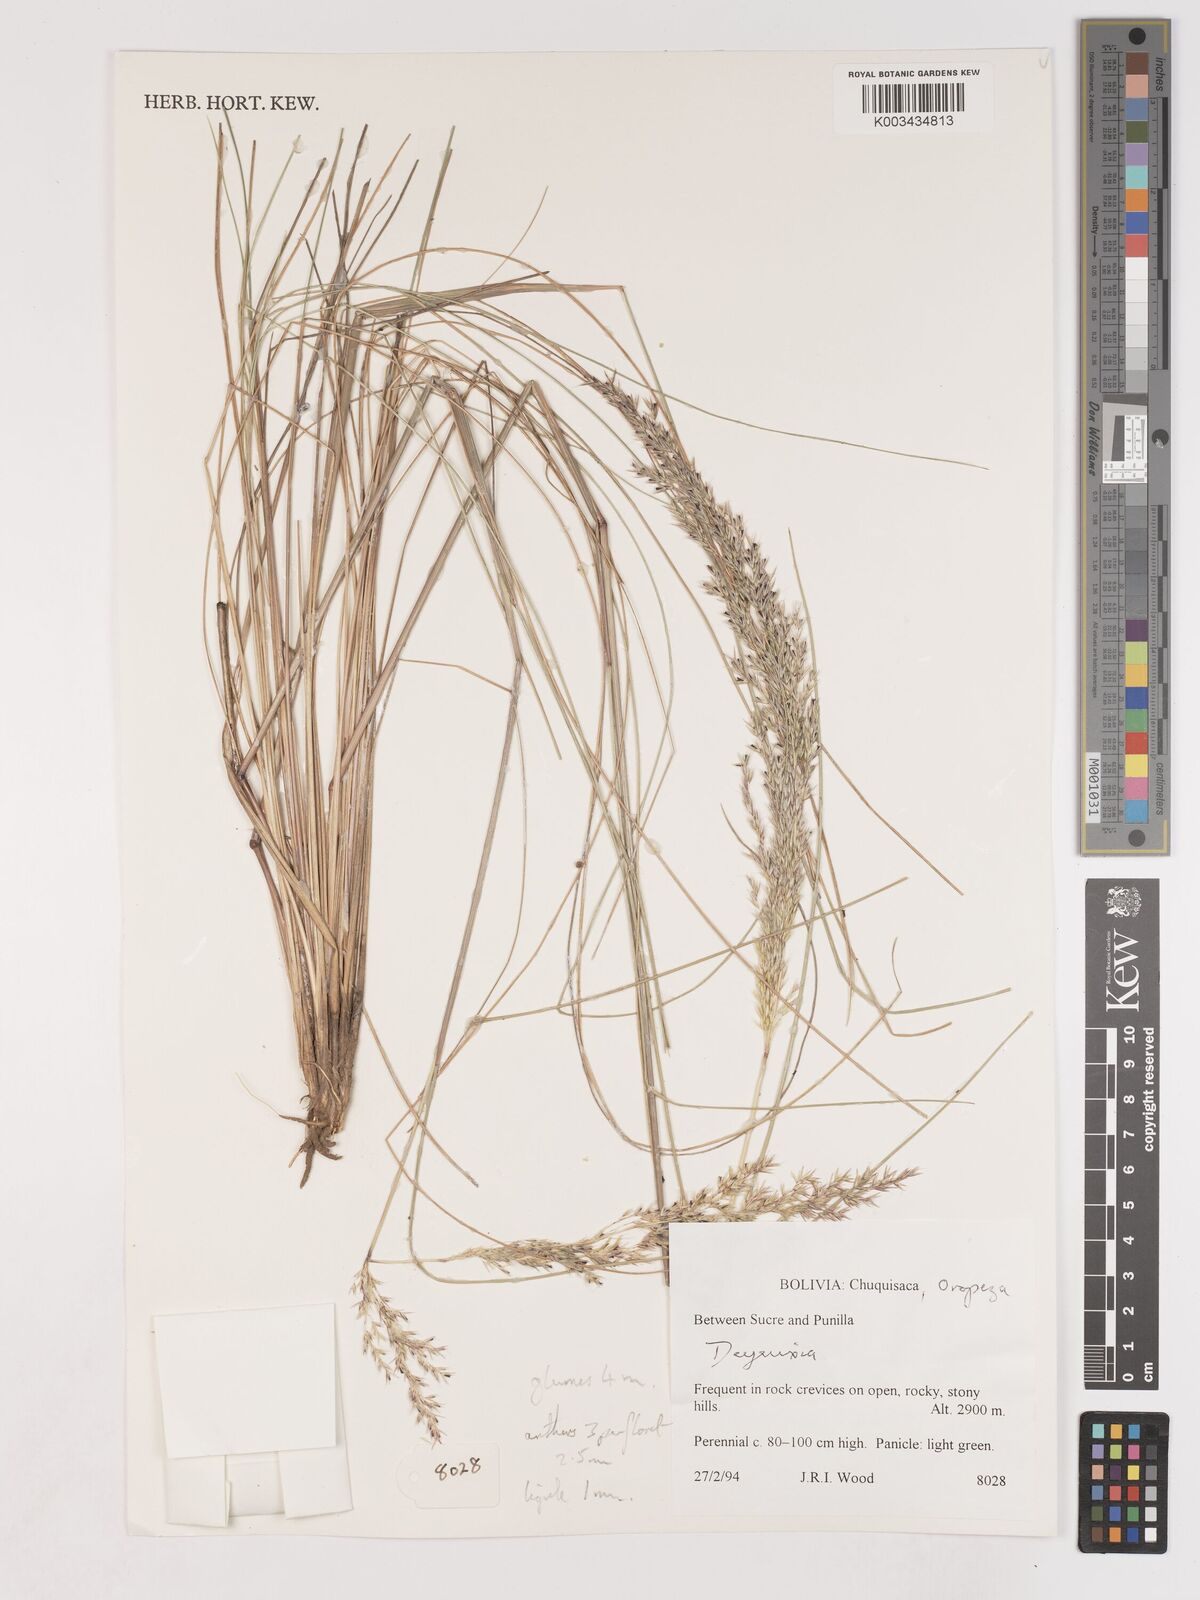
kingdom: Plantae
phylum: Tracheophyta
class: Liliopsida
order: Poales
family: Poaceae
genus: Cinnagrostis
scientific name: Cinnagrostis orbignyana
